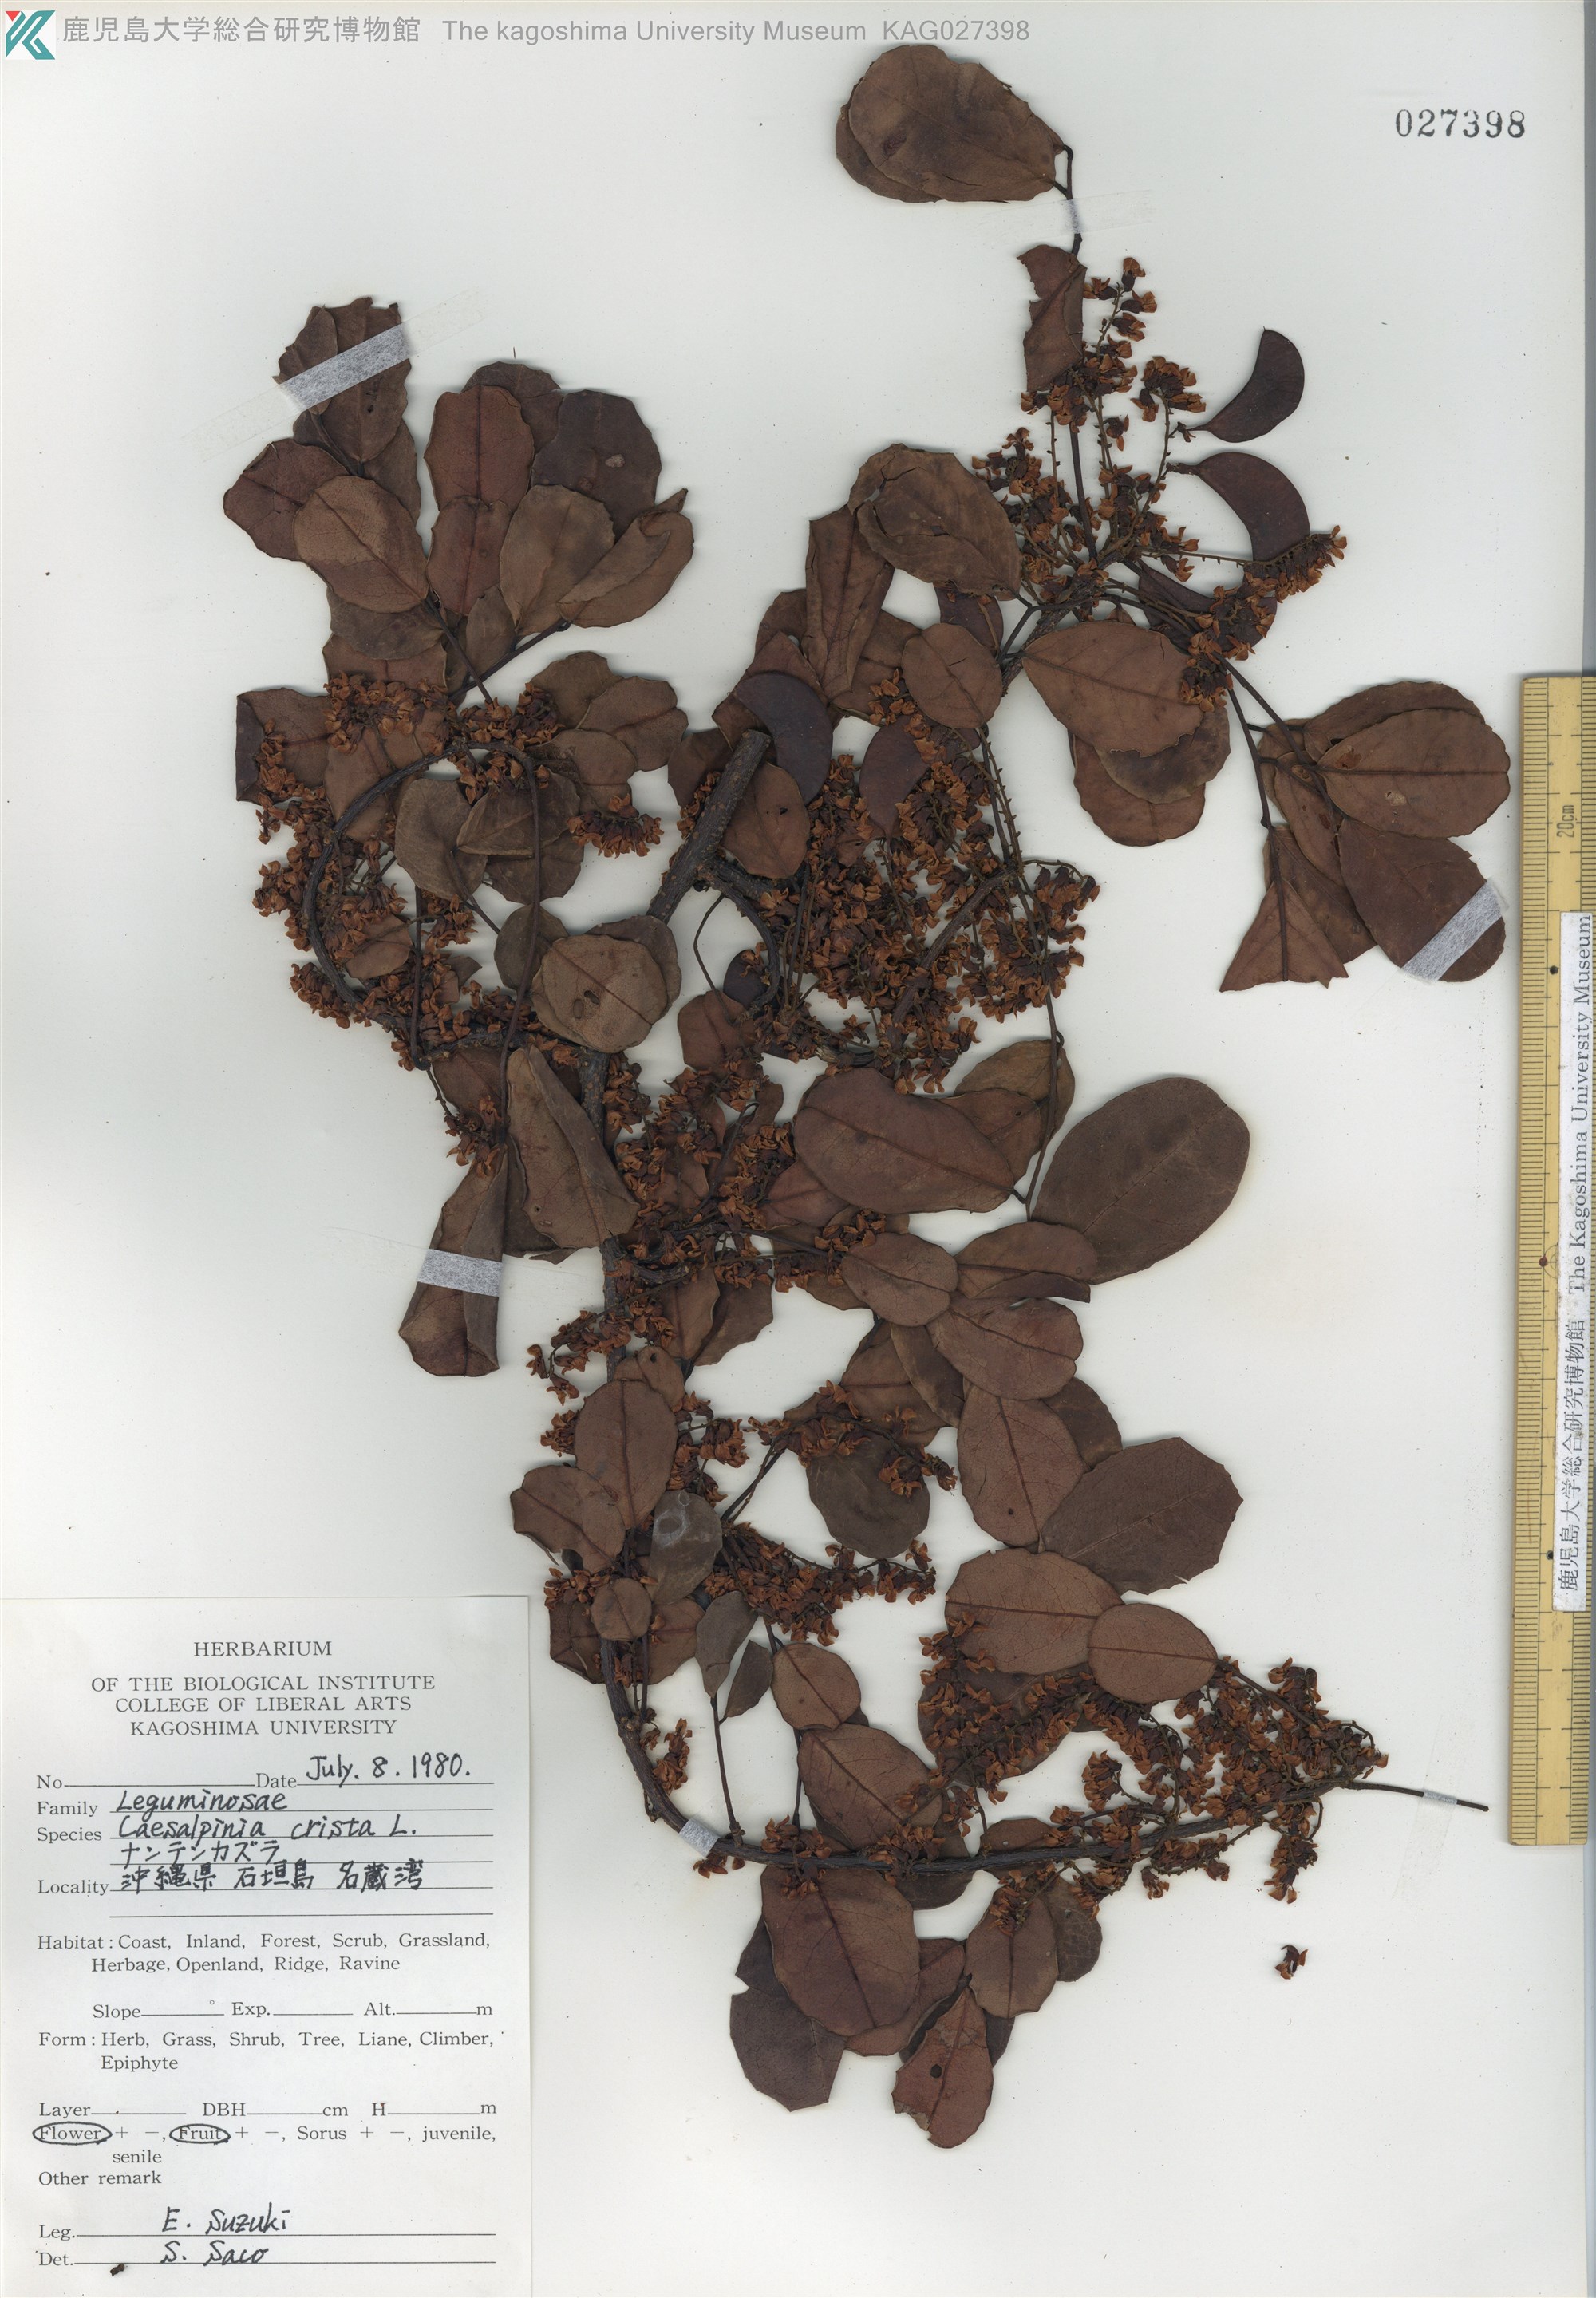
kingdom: Plantae
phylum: Tracheophyta
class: Magnoliopsida
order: Fabales
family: Fabaceae
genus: Caesalpinia
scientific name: Caesalpinia Ticanto crista
